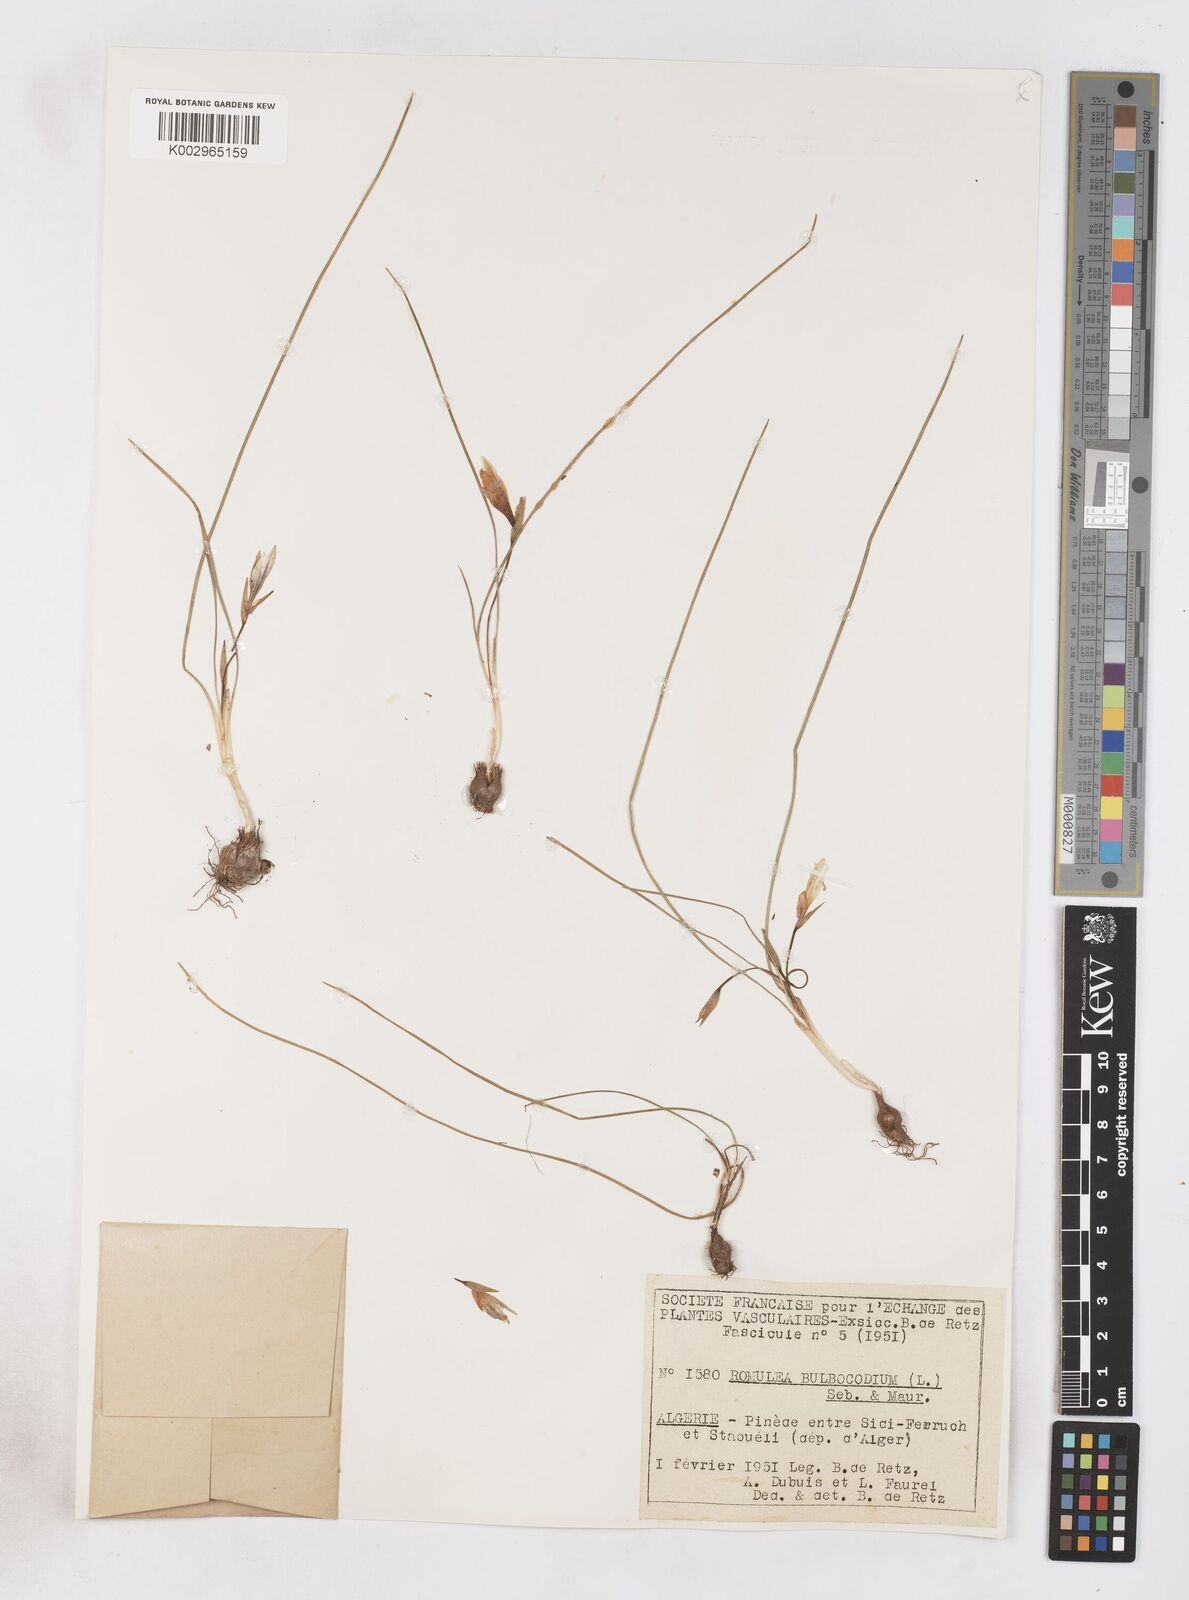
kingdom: Plantae
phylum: Tracheophyta
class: Liliopsida
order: Asparagales
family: Iridaceae
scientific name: Iridaceae
